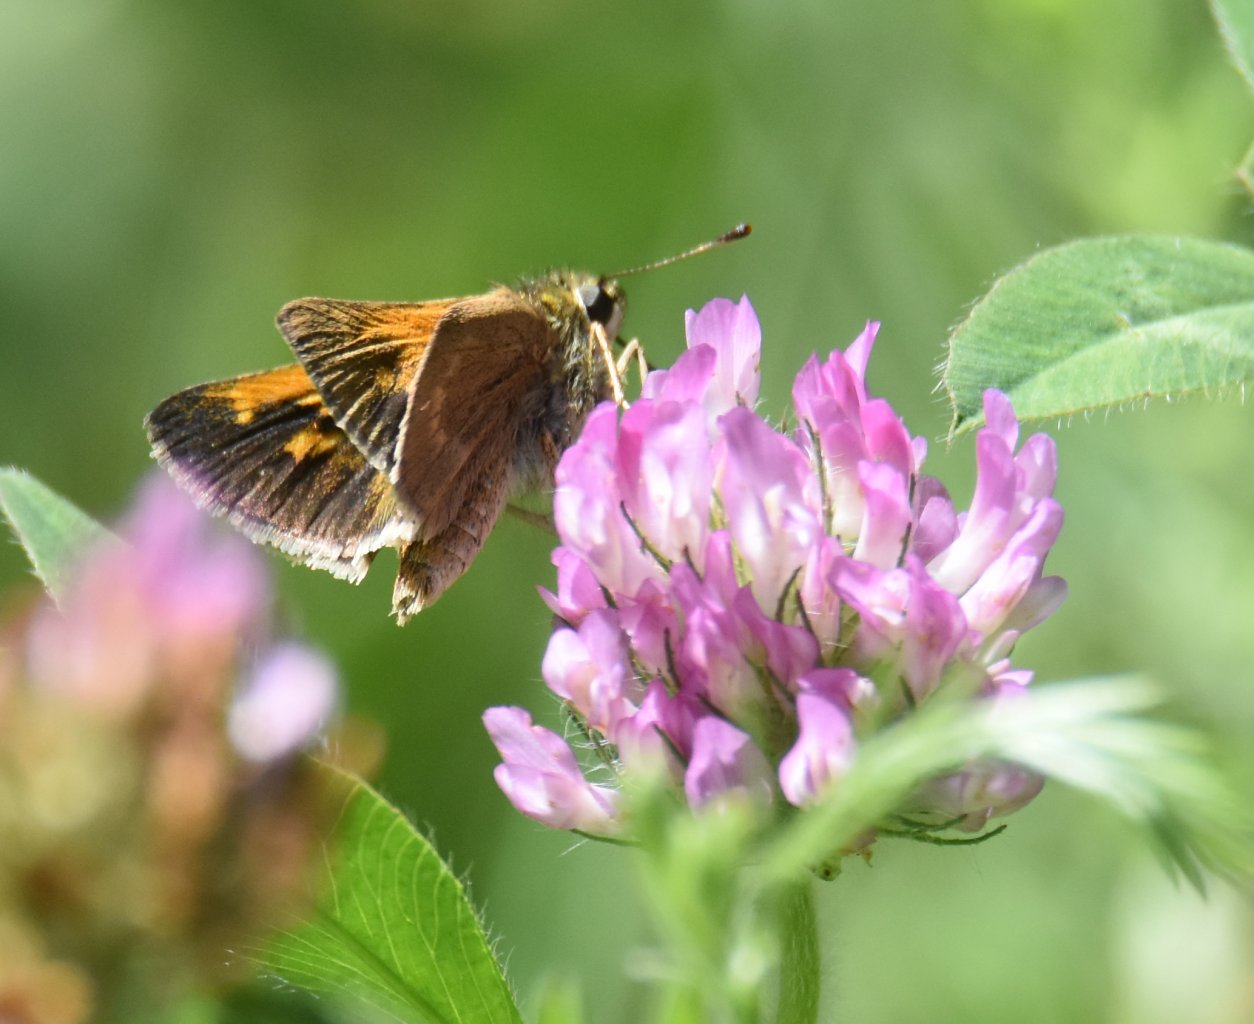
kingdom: Animalia
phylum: Arthropoda
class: Insecta
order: Lepidoptera
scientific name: Lepidoptera
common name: Butterflies
